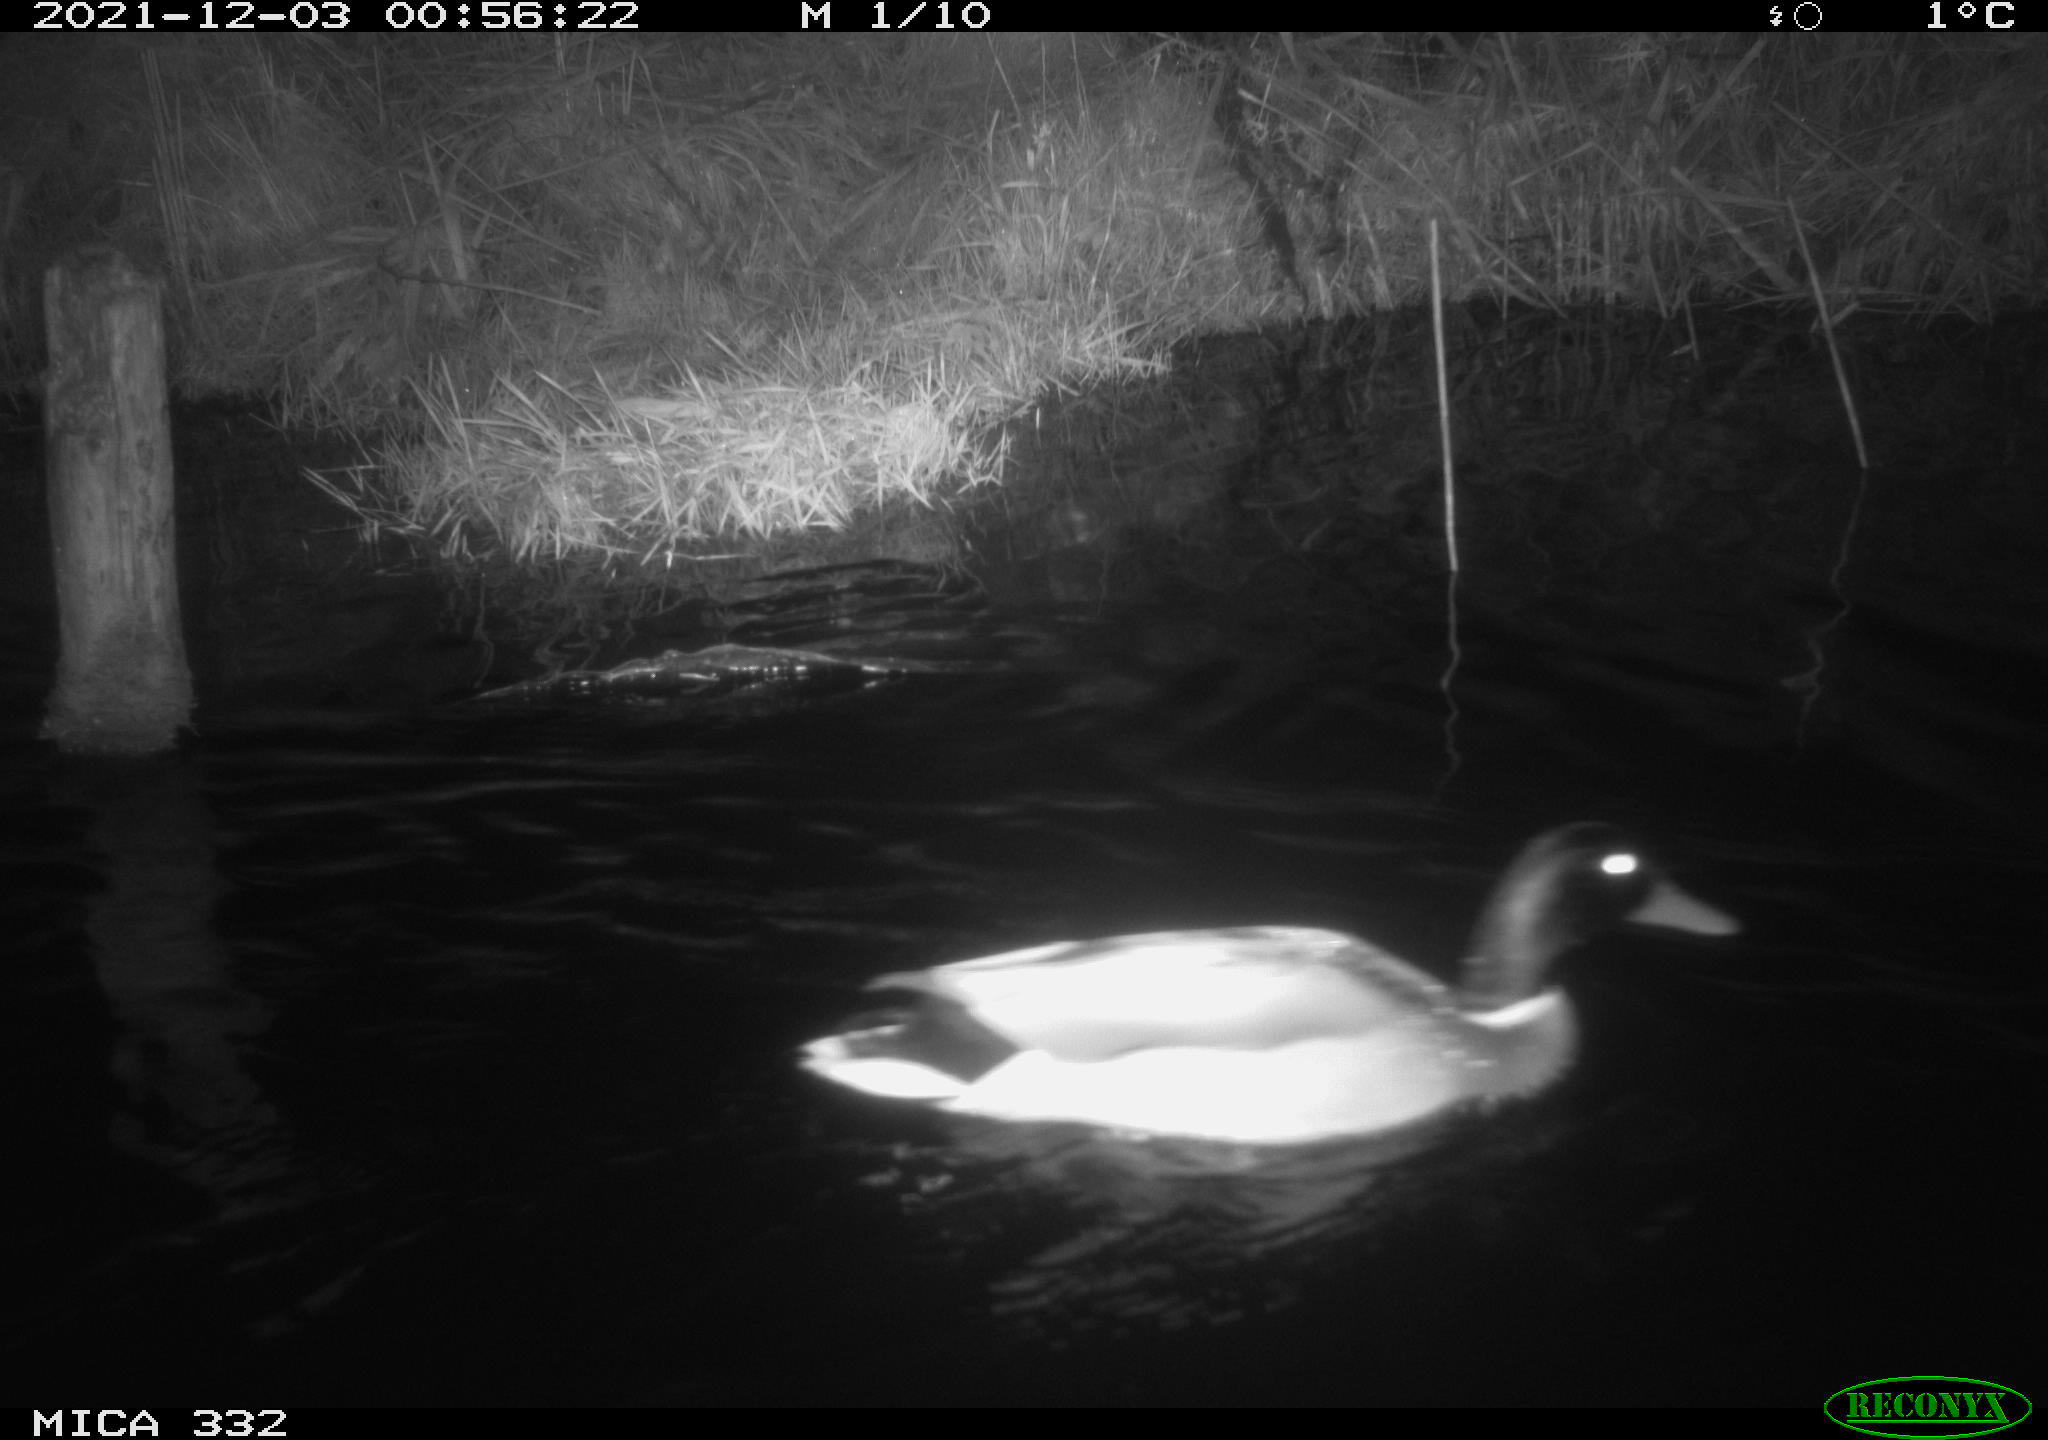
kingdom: Animalia
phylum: Chordata
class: Aves
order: Anseriformes
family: Anatidae
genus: Anas
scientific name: Anas platyrhynchos
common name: Mallard
